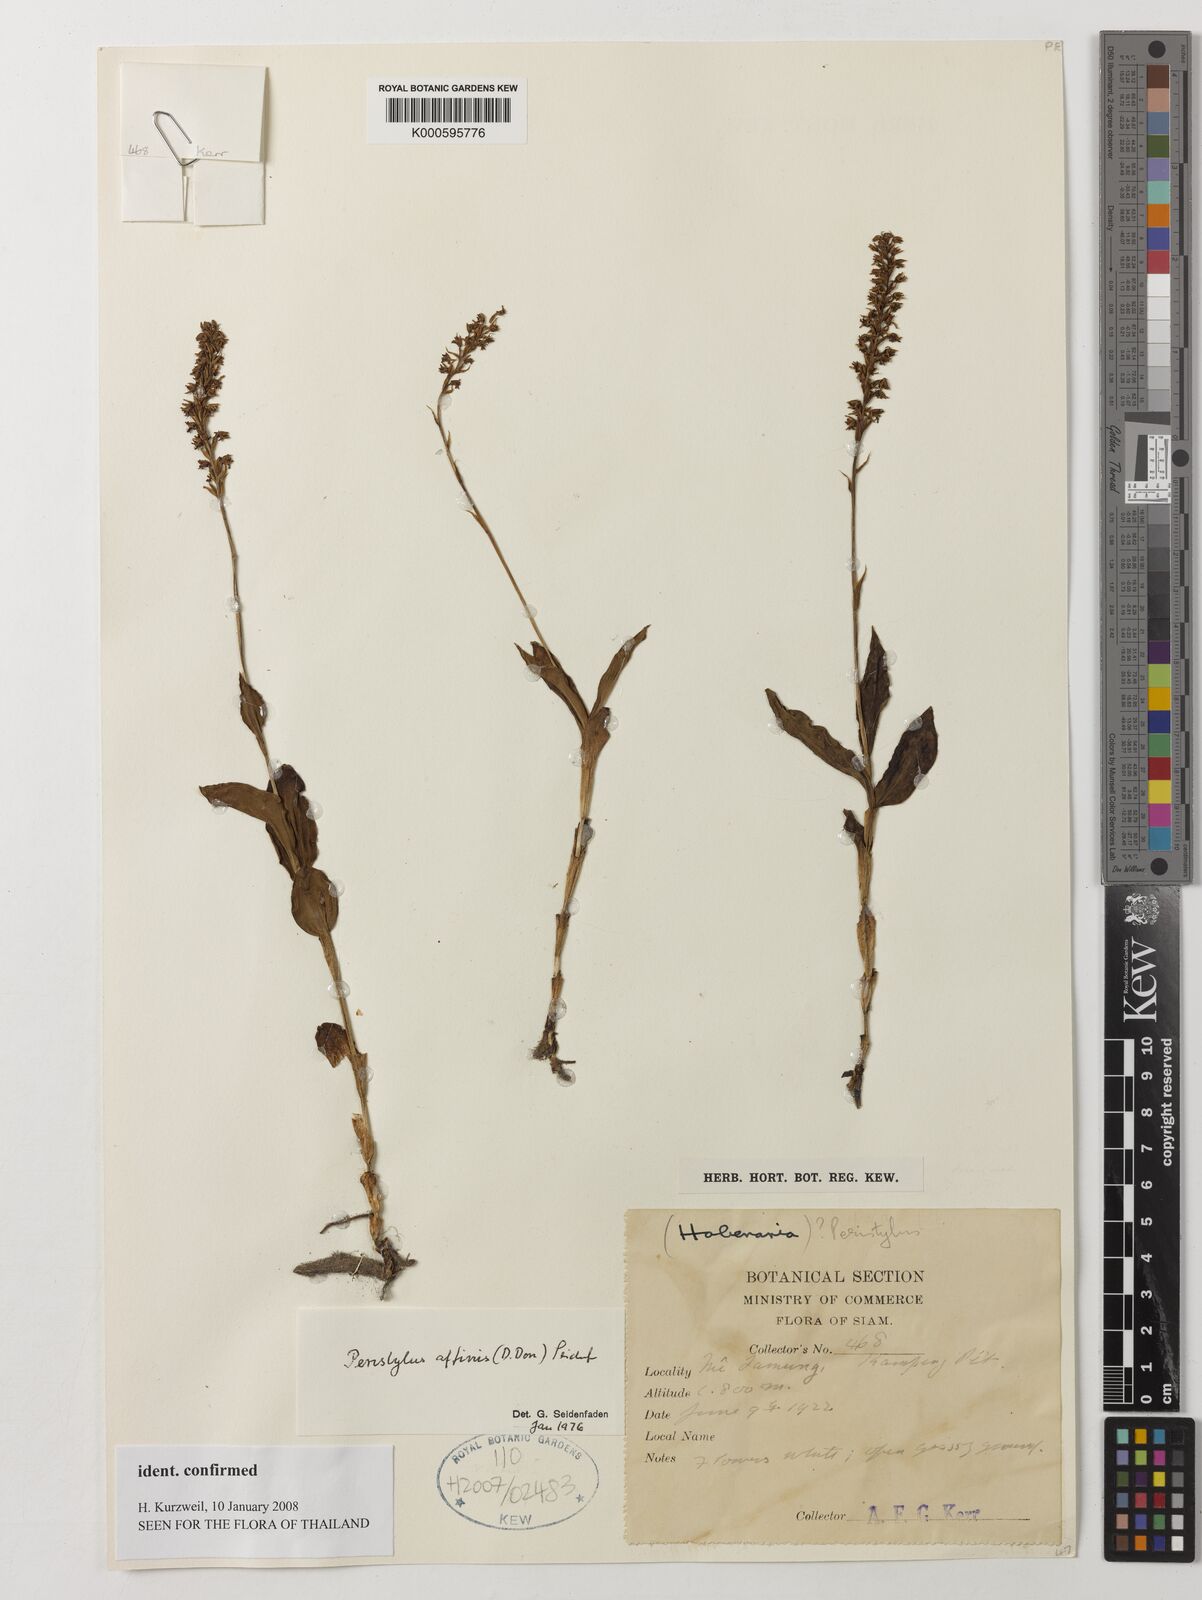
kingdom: Plantae
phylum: Tracheophyta
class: Liliopsida
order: Asparagales
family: Orchidaceae
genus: Peristylus
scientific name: Peristylus affinis
